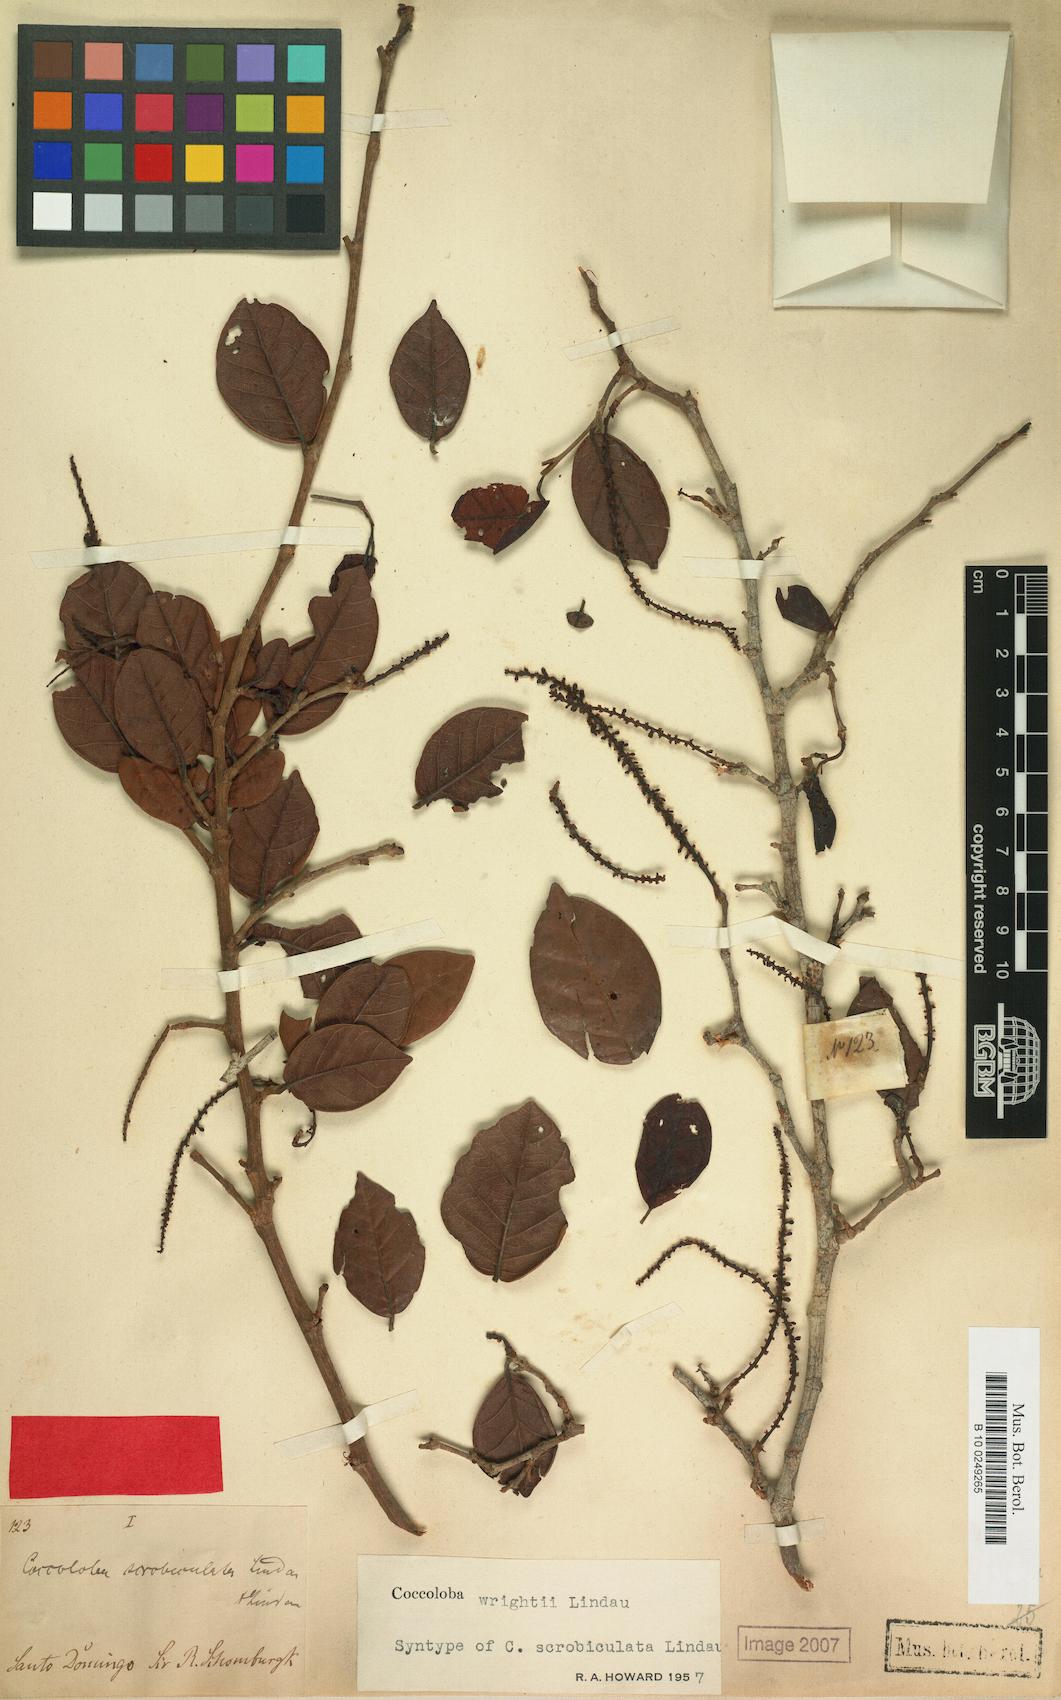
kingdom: Plantae
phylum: Tracheophyta
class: Magnoliopsida
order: Caryophyllales
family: Polygonaceae
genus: Coccoloba
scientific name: Coccoloba wrightii
